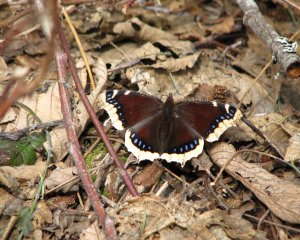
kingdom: Animalia
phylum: Arthropoda
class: Insecta
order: Lepidoptera
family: Nymphalidae
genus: Nymphalis
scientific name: Nymphalis antiopa
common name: Mourning Cloak
